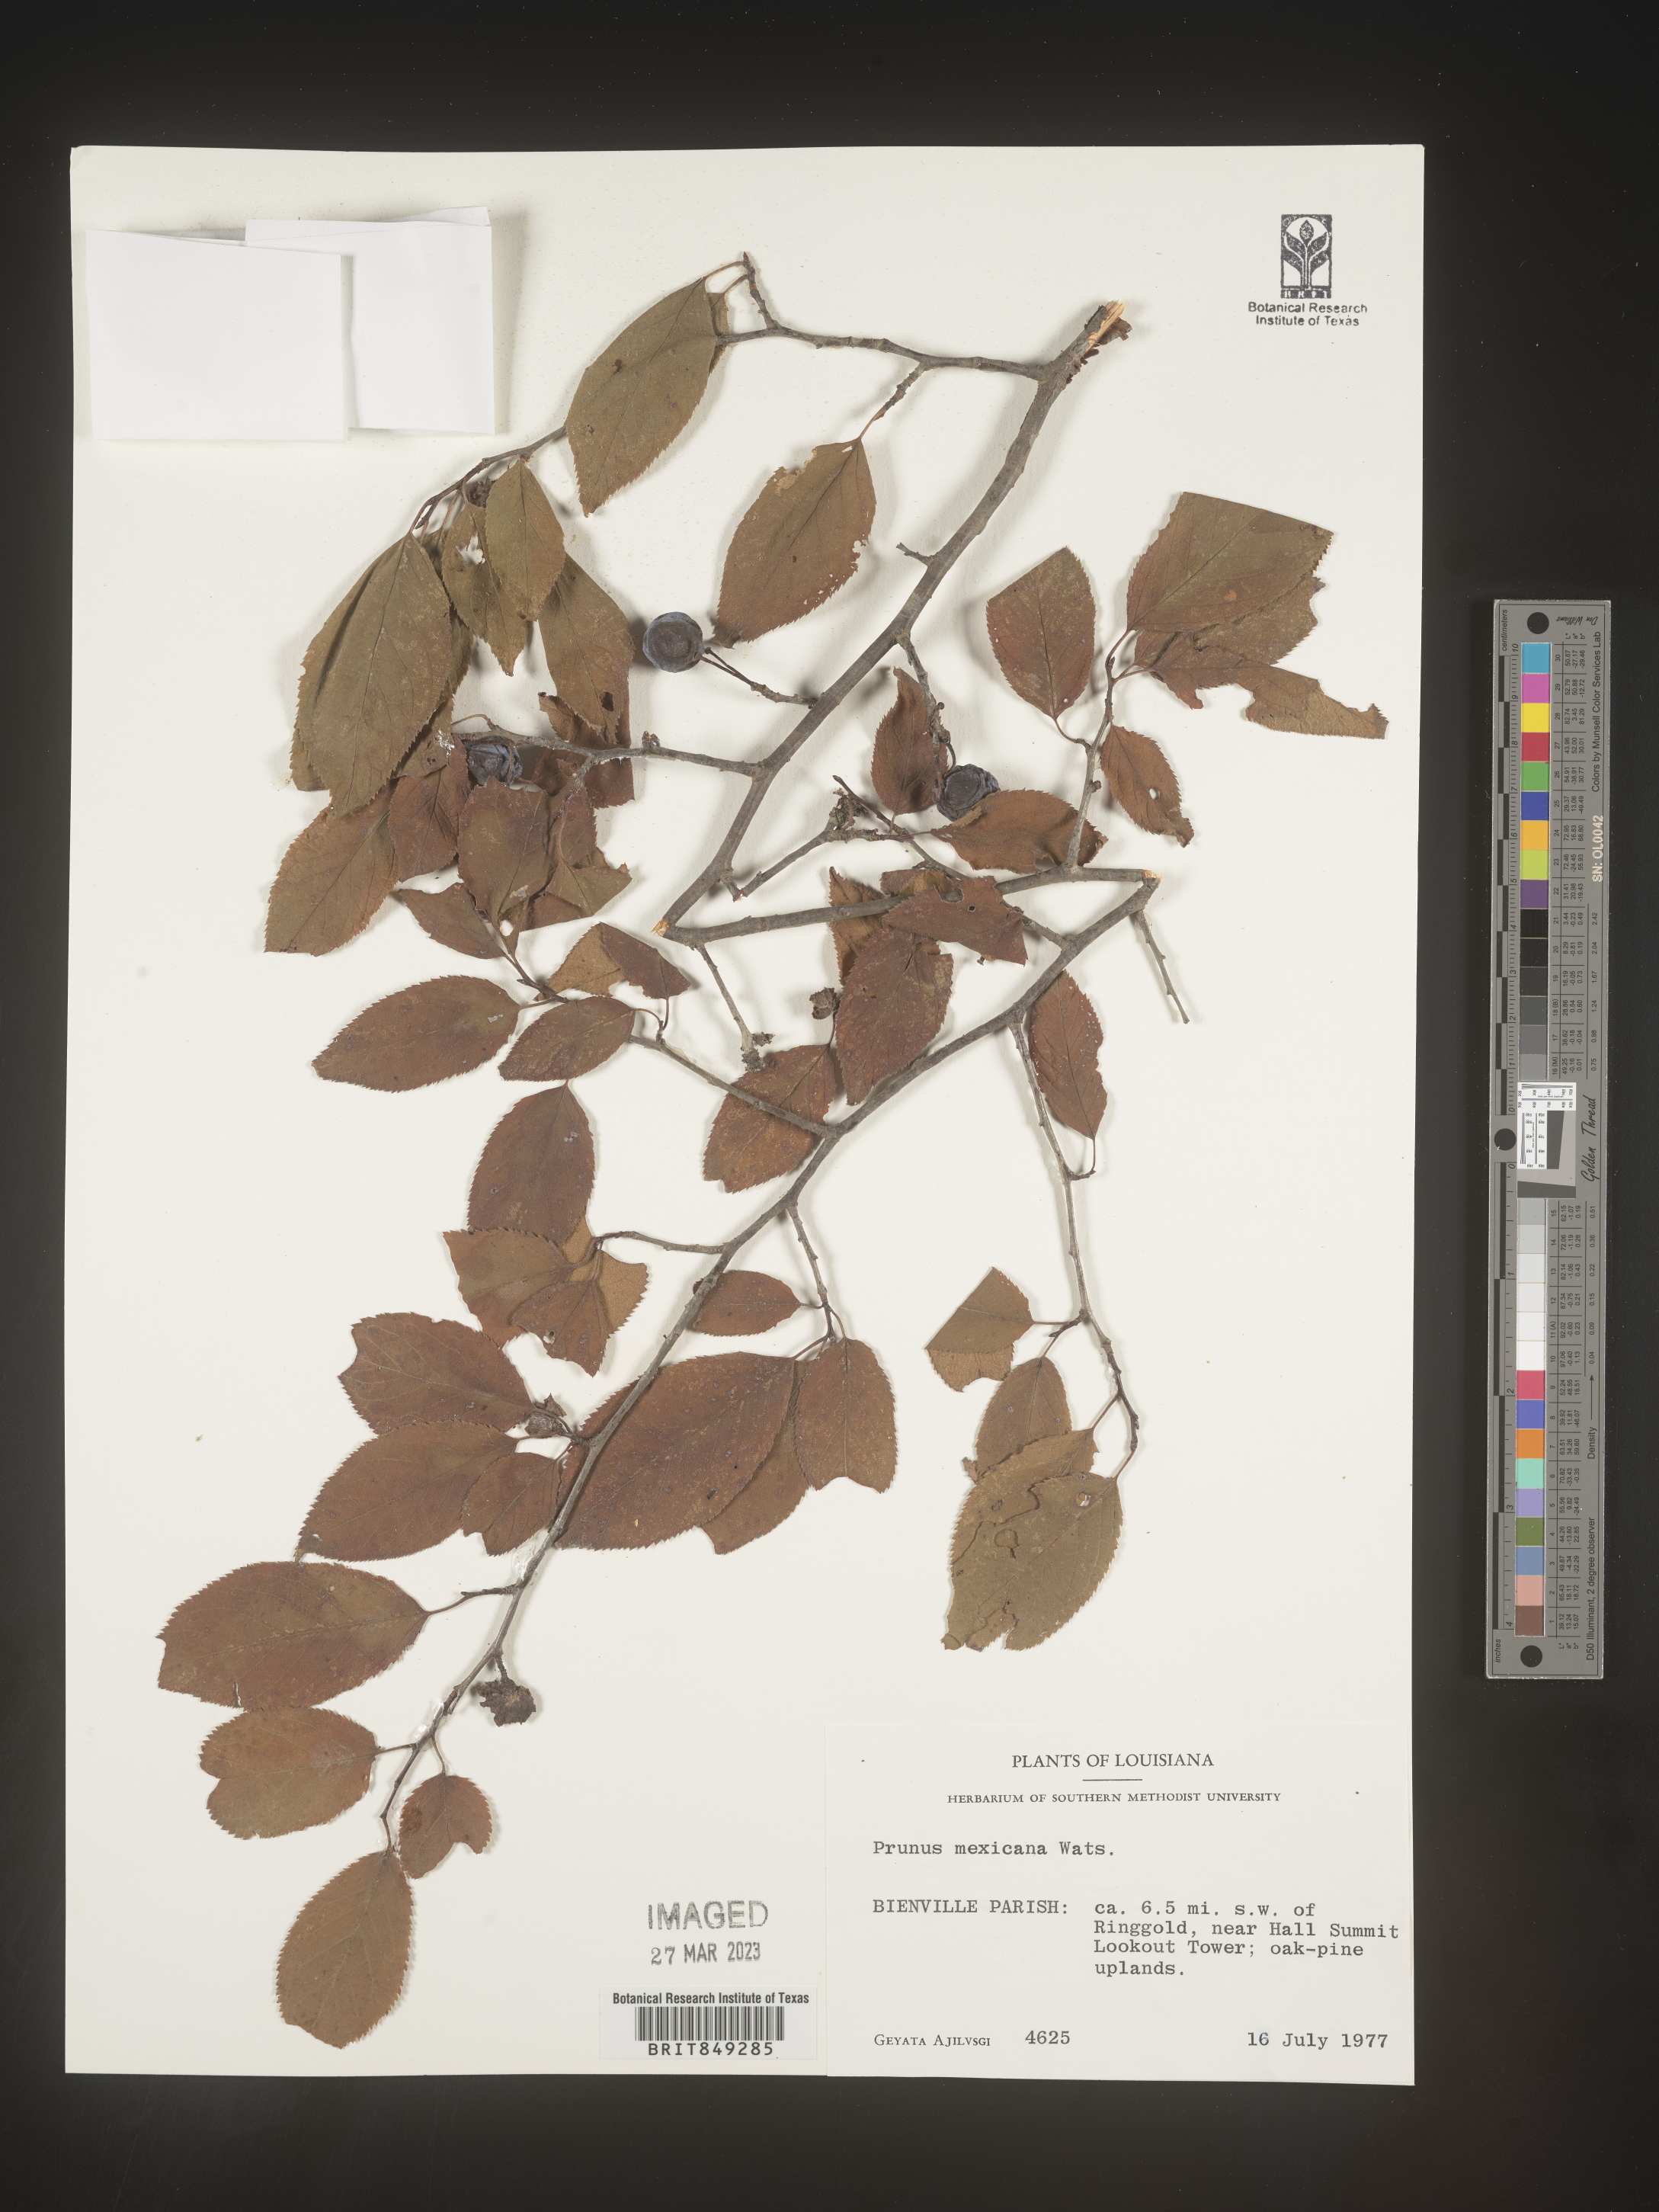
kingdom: Plantae
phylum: Tracheophyta
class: Magnoliopsida
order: Rosales
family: Rosaceae
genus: Prunus
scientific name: Prunus mexicana
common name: Mexican plum
